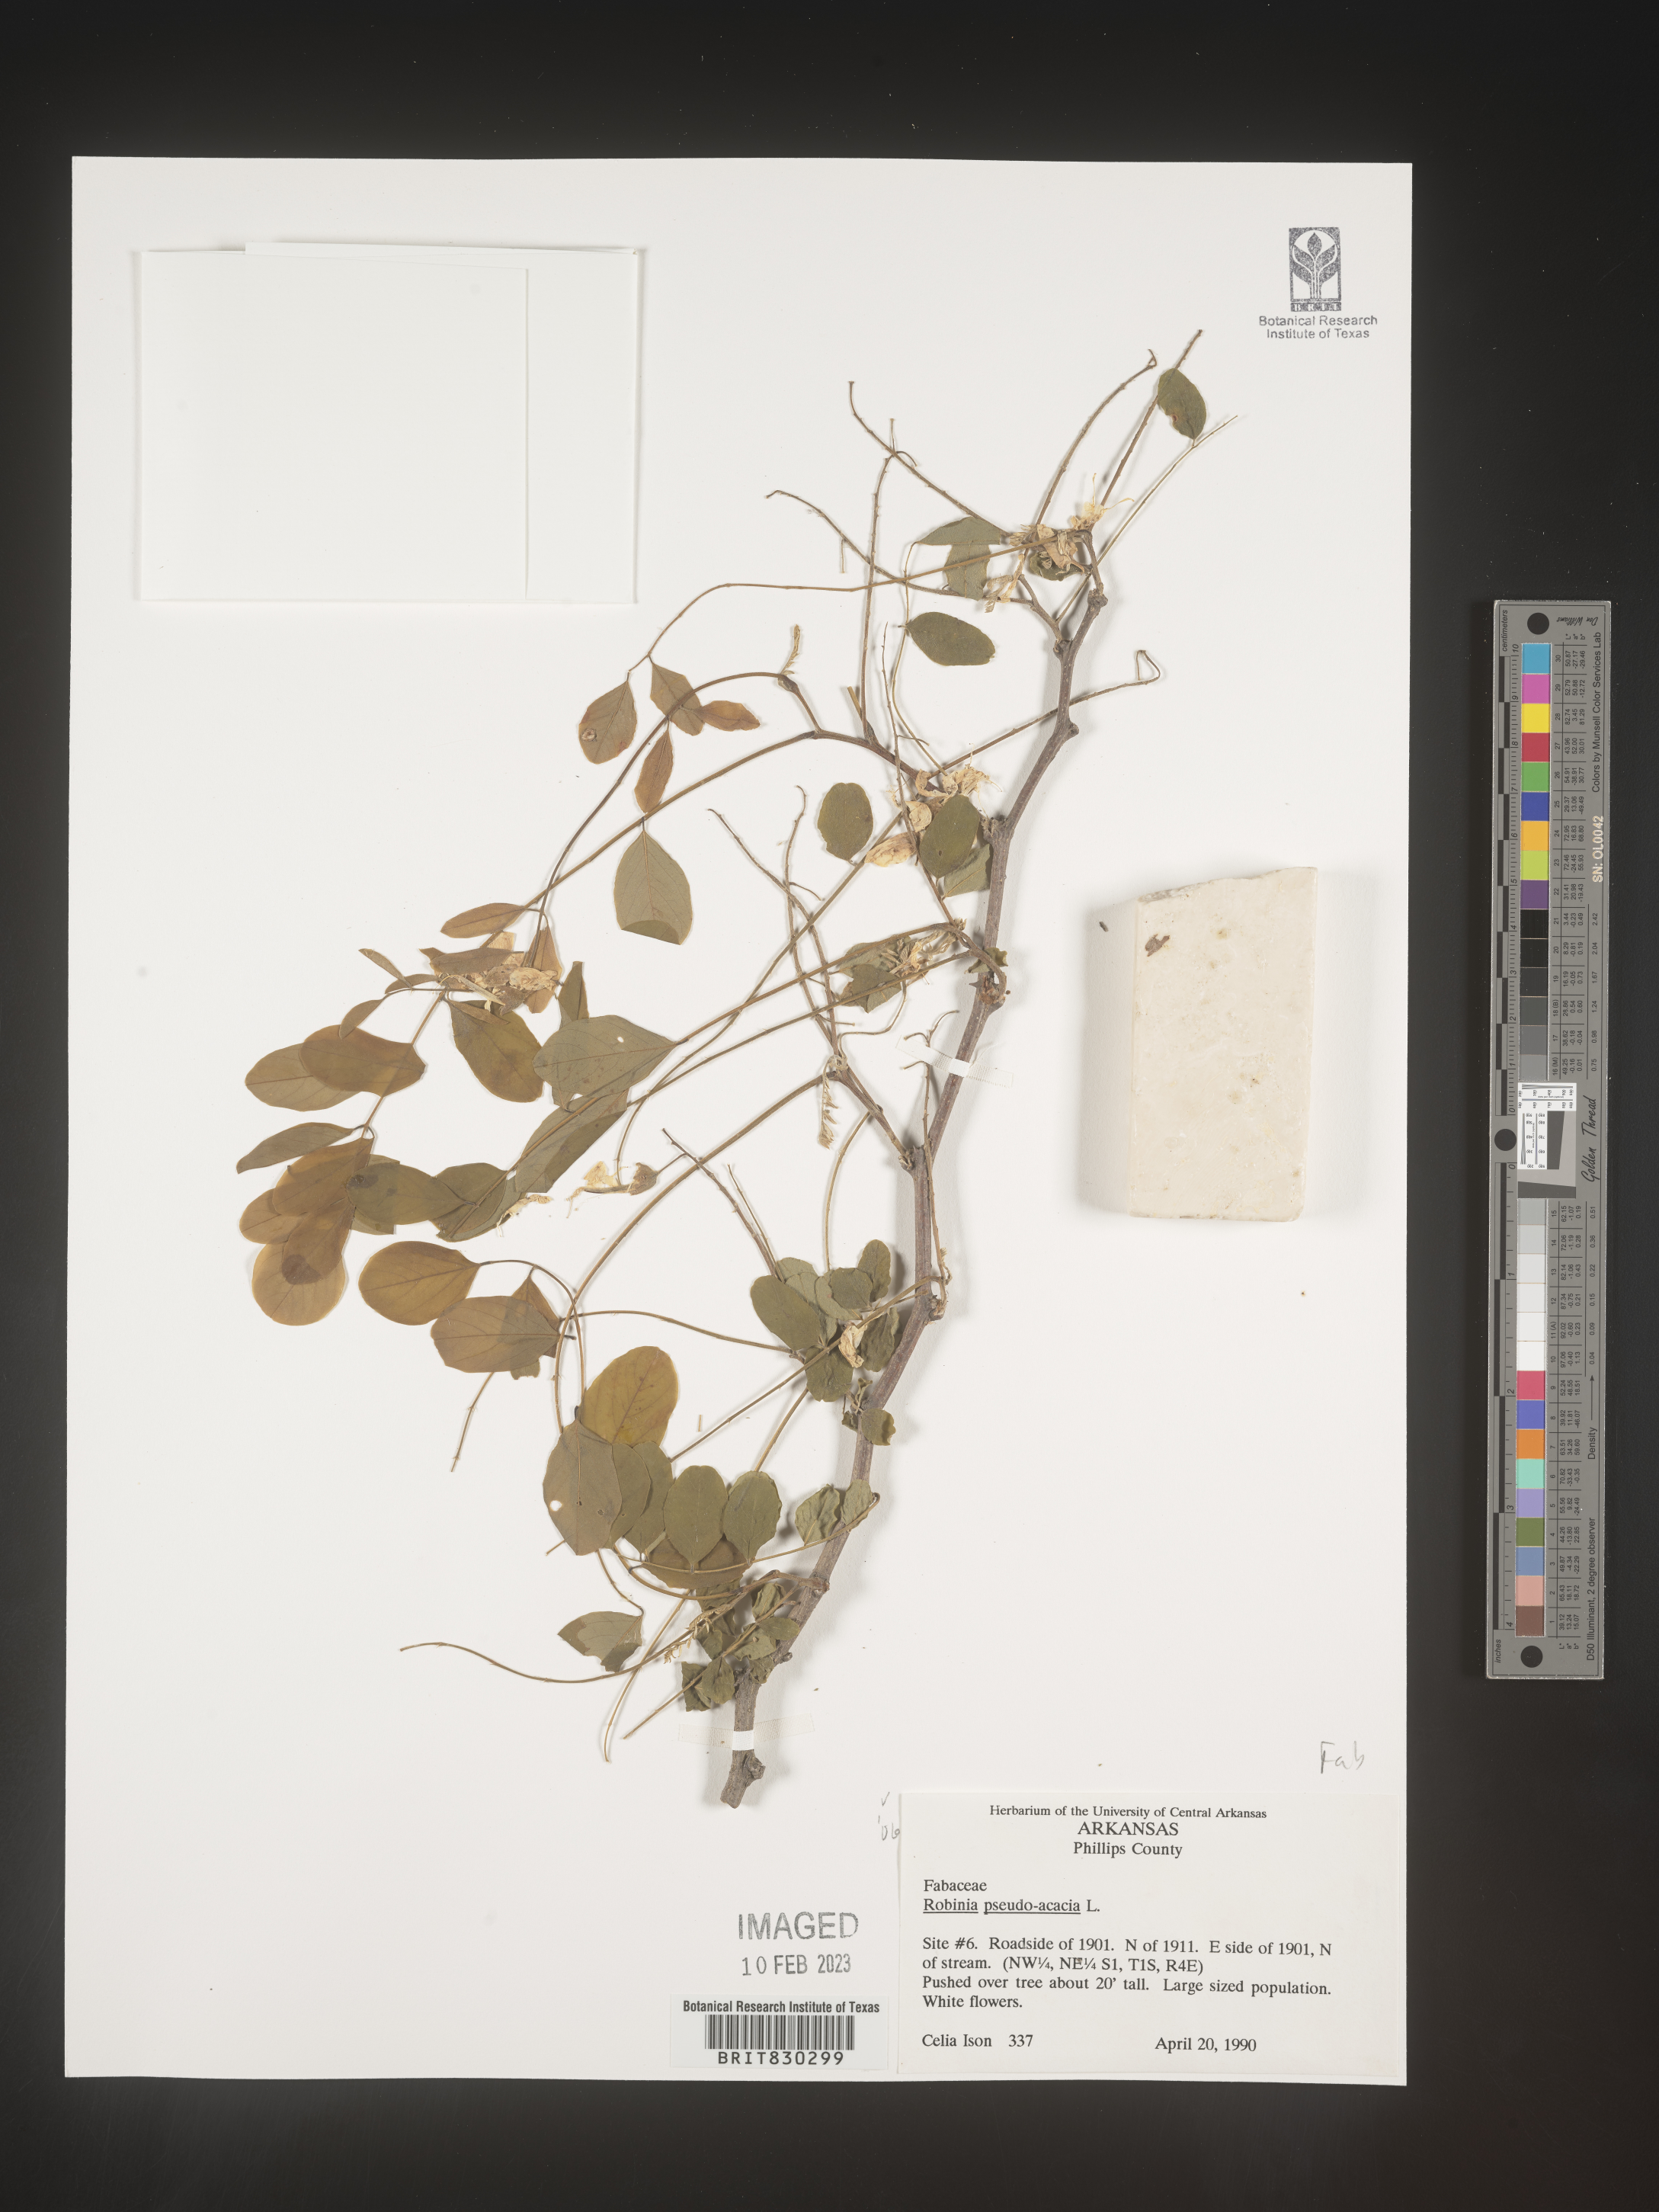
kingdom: Plantae
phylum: Tracheophyta
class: Magnoliopsida
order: Fabales
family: Fabaceae
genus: Robinia
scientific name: Robinia pseudoacacia
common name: Black locust
